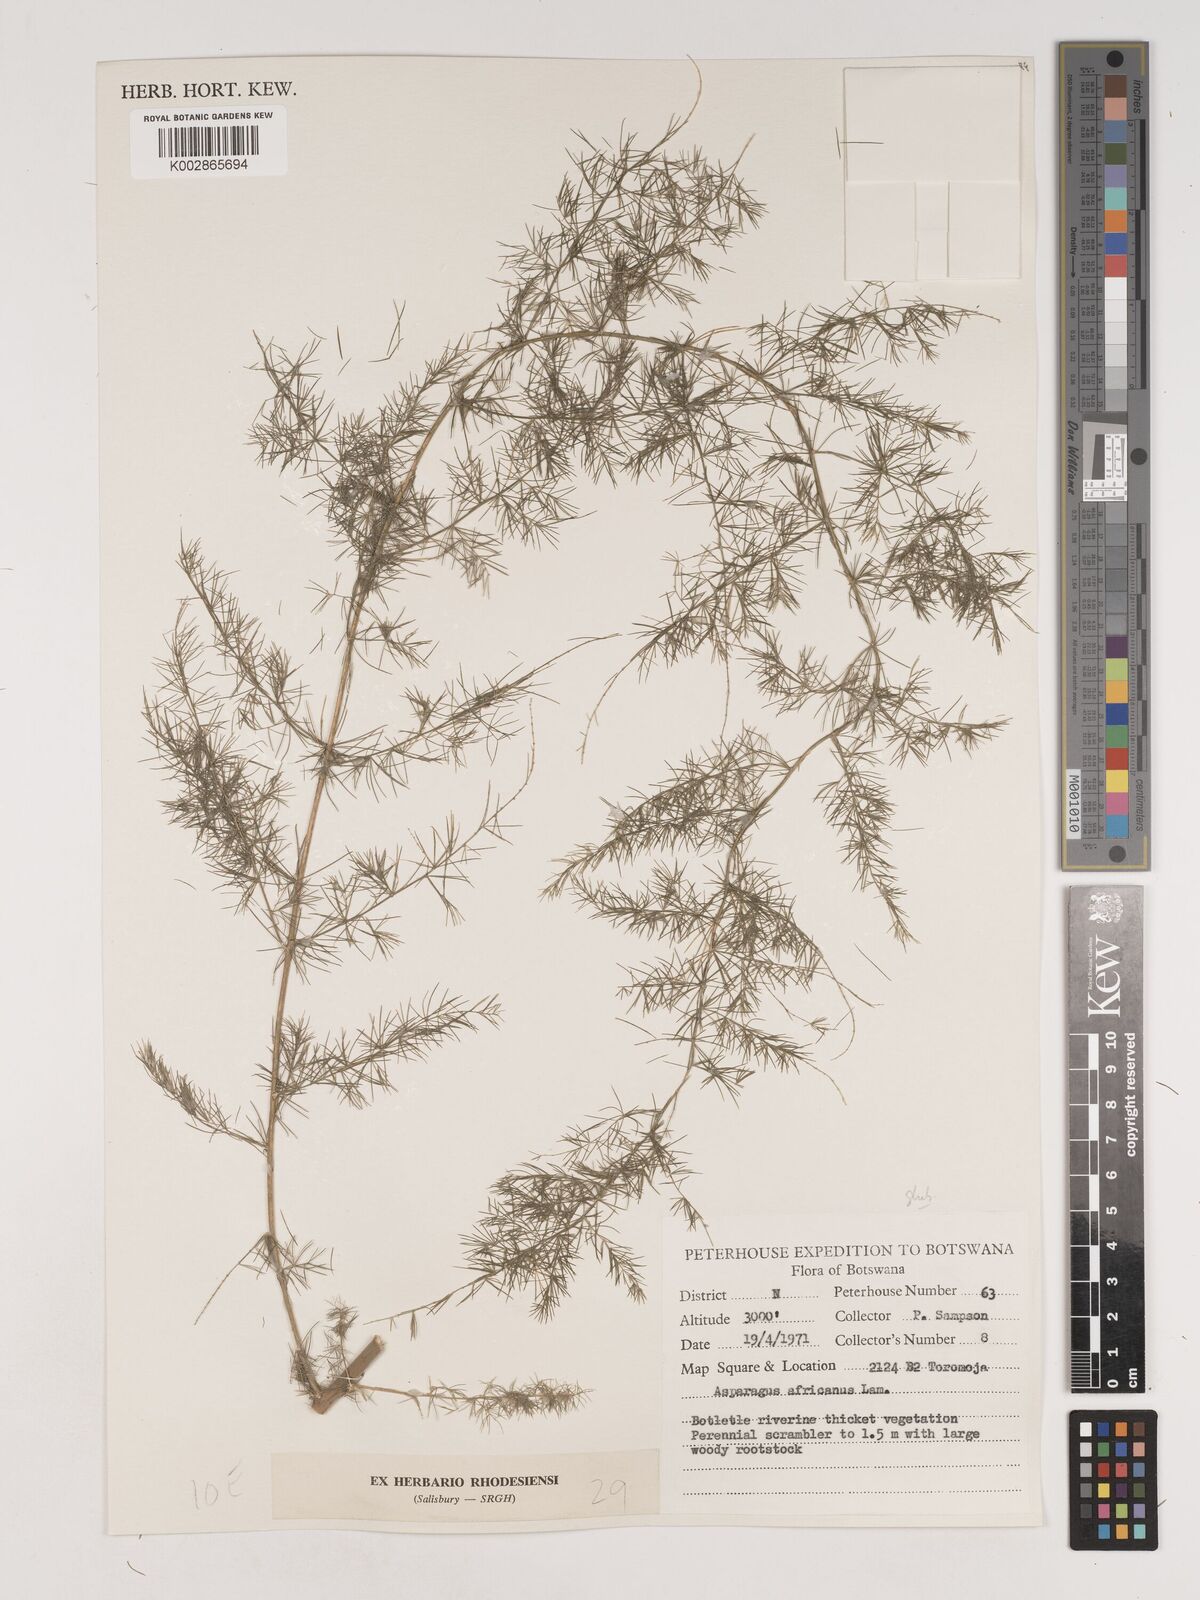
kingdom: Plantae
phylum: Tracheophyta
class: Liliopsida
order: Asparagales
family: Asparagaceae
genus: Asparagus
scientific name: Asparagus
